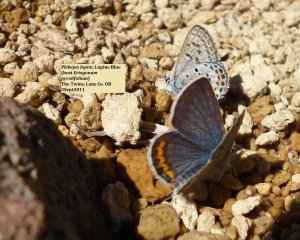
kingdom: Animalia
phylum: Arthropoda
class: Insecta
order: Lepidoptera
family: Lycaenidae
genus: Plebejus
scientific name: Plebejus lupini
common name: Lupine Blue
